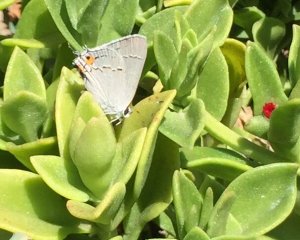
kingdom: Animalia
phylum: Arthropoda
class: Insecta
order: Lepidoptera
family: Lycaenidae
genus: Strymon
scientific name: Strymon melinus
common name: Gray Hairstreak
